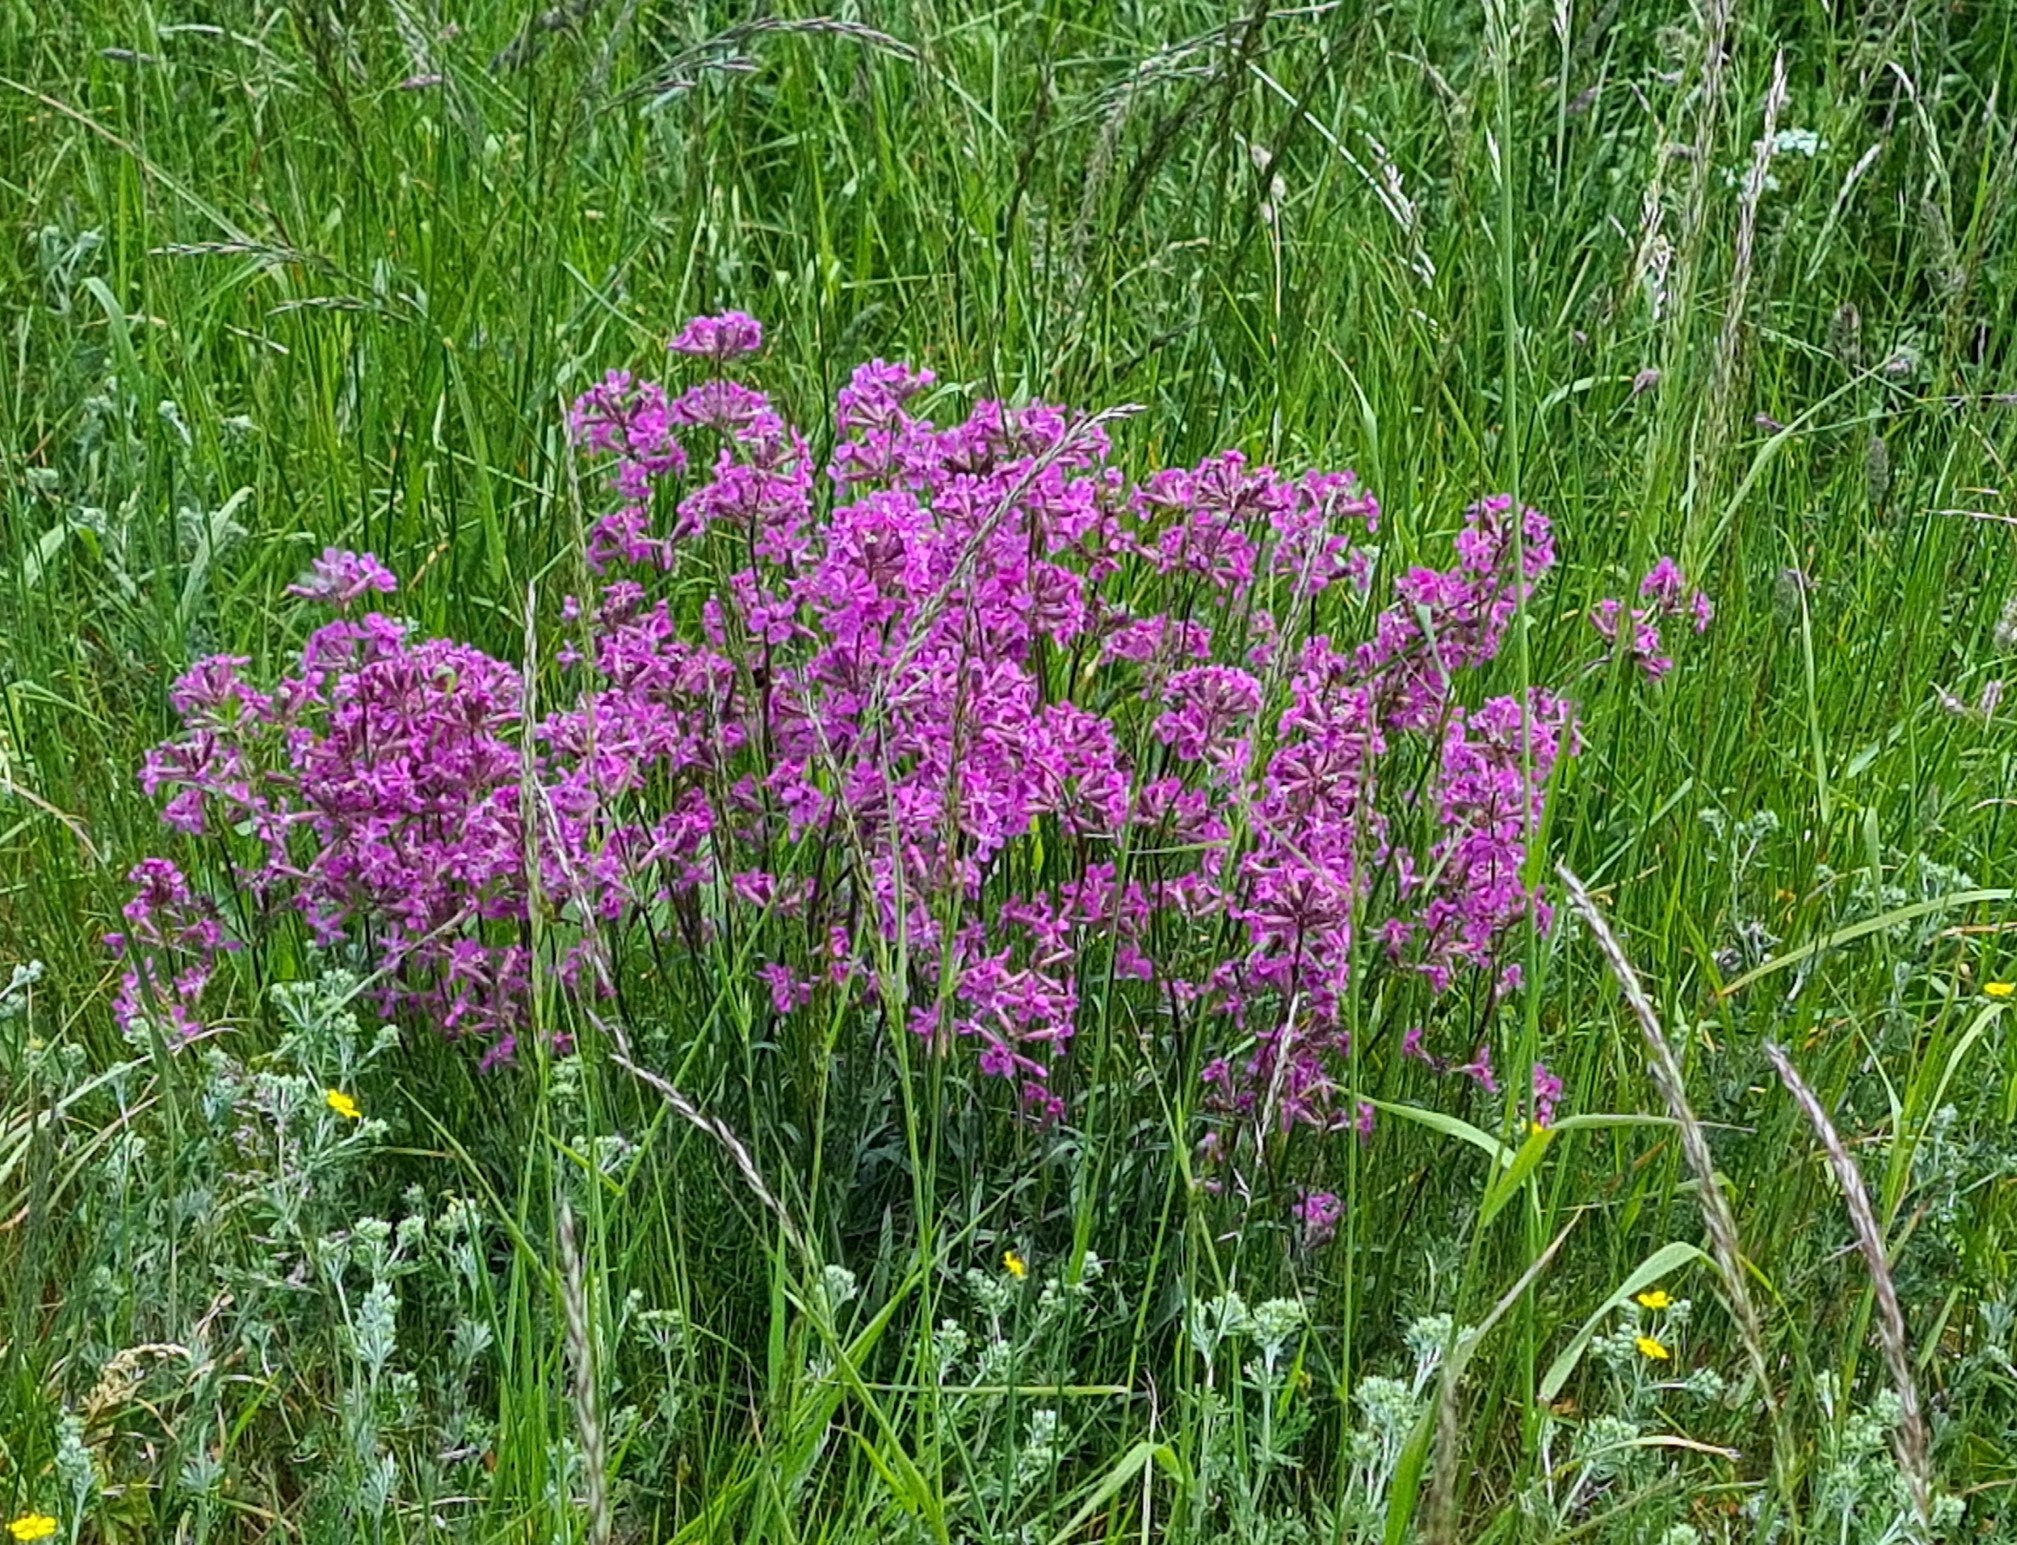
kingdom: Plantae
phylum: Tracheophyta
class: Magnoliopsida
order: Caryophyllales
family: Caryophyllaceae
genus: Viscaria
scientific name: Viscaria vulgaris
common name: Tjærenellike
